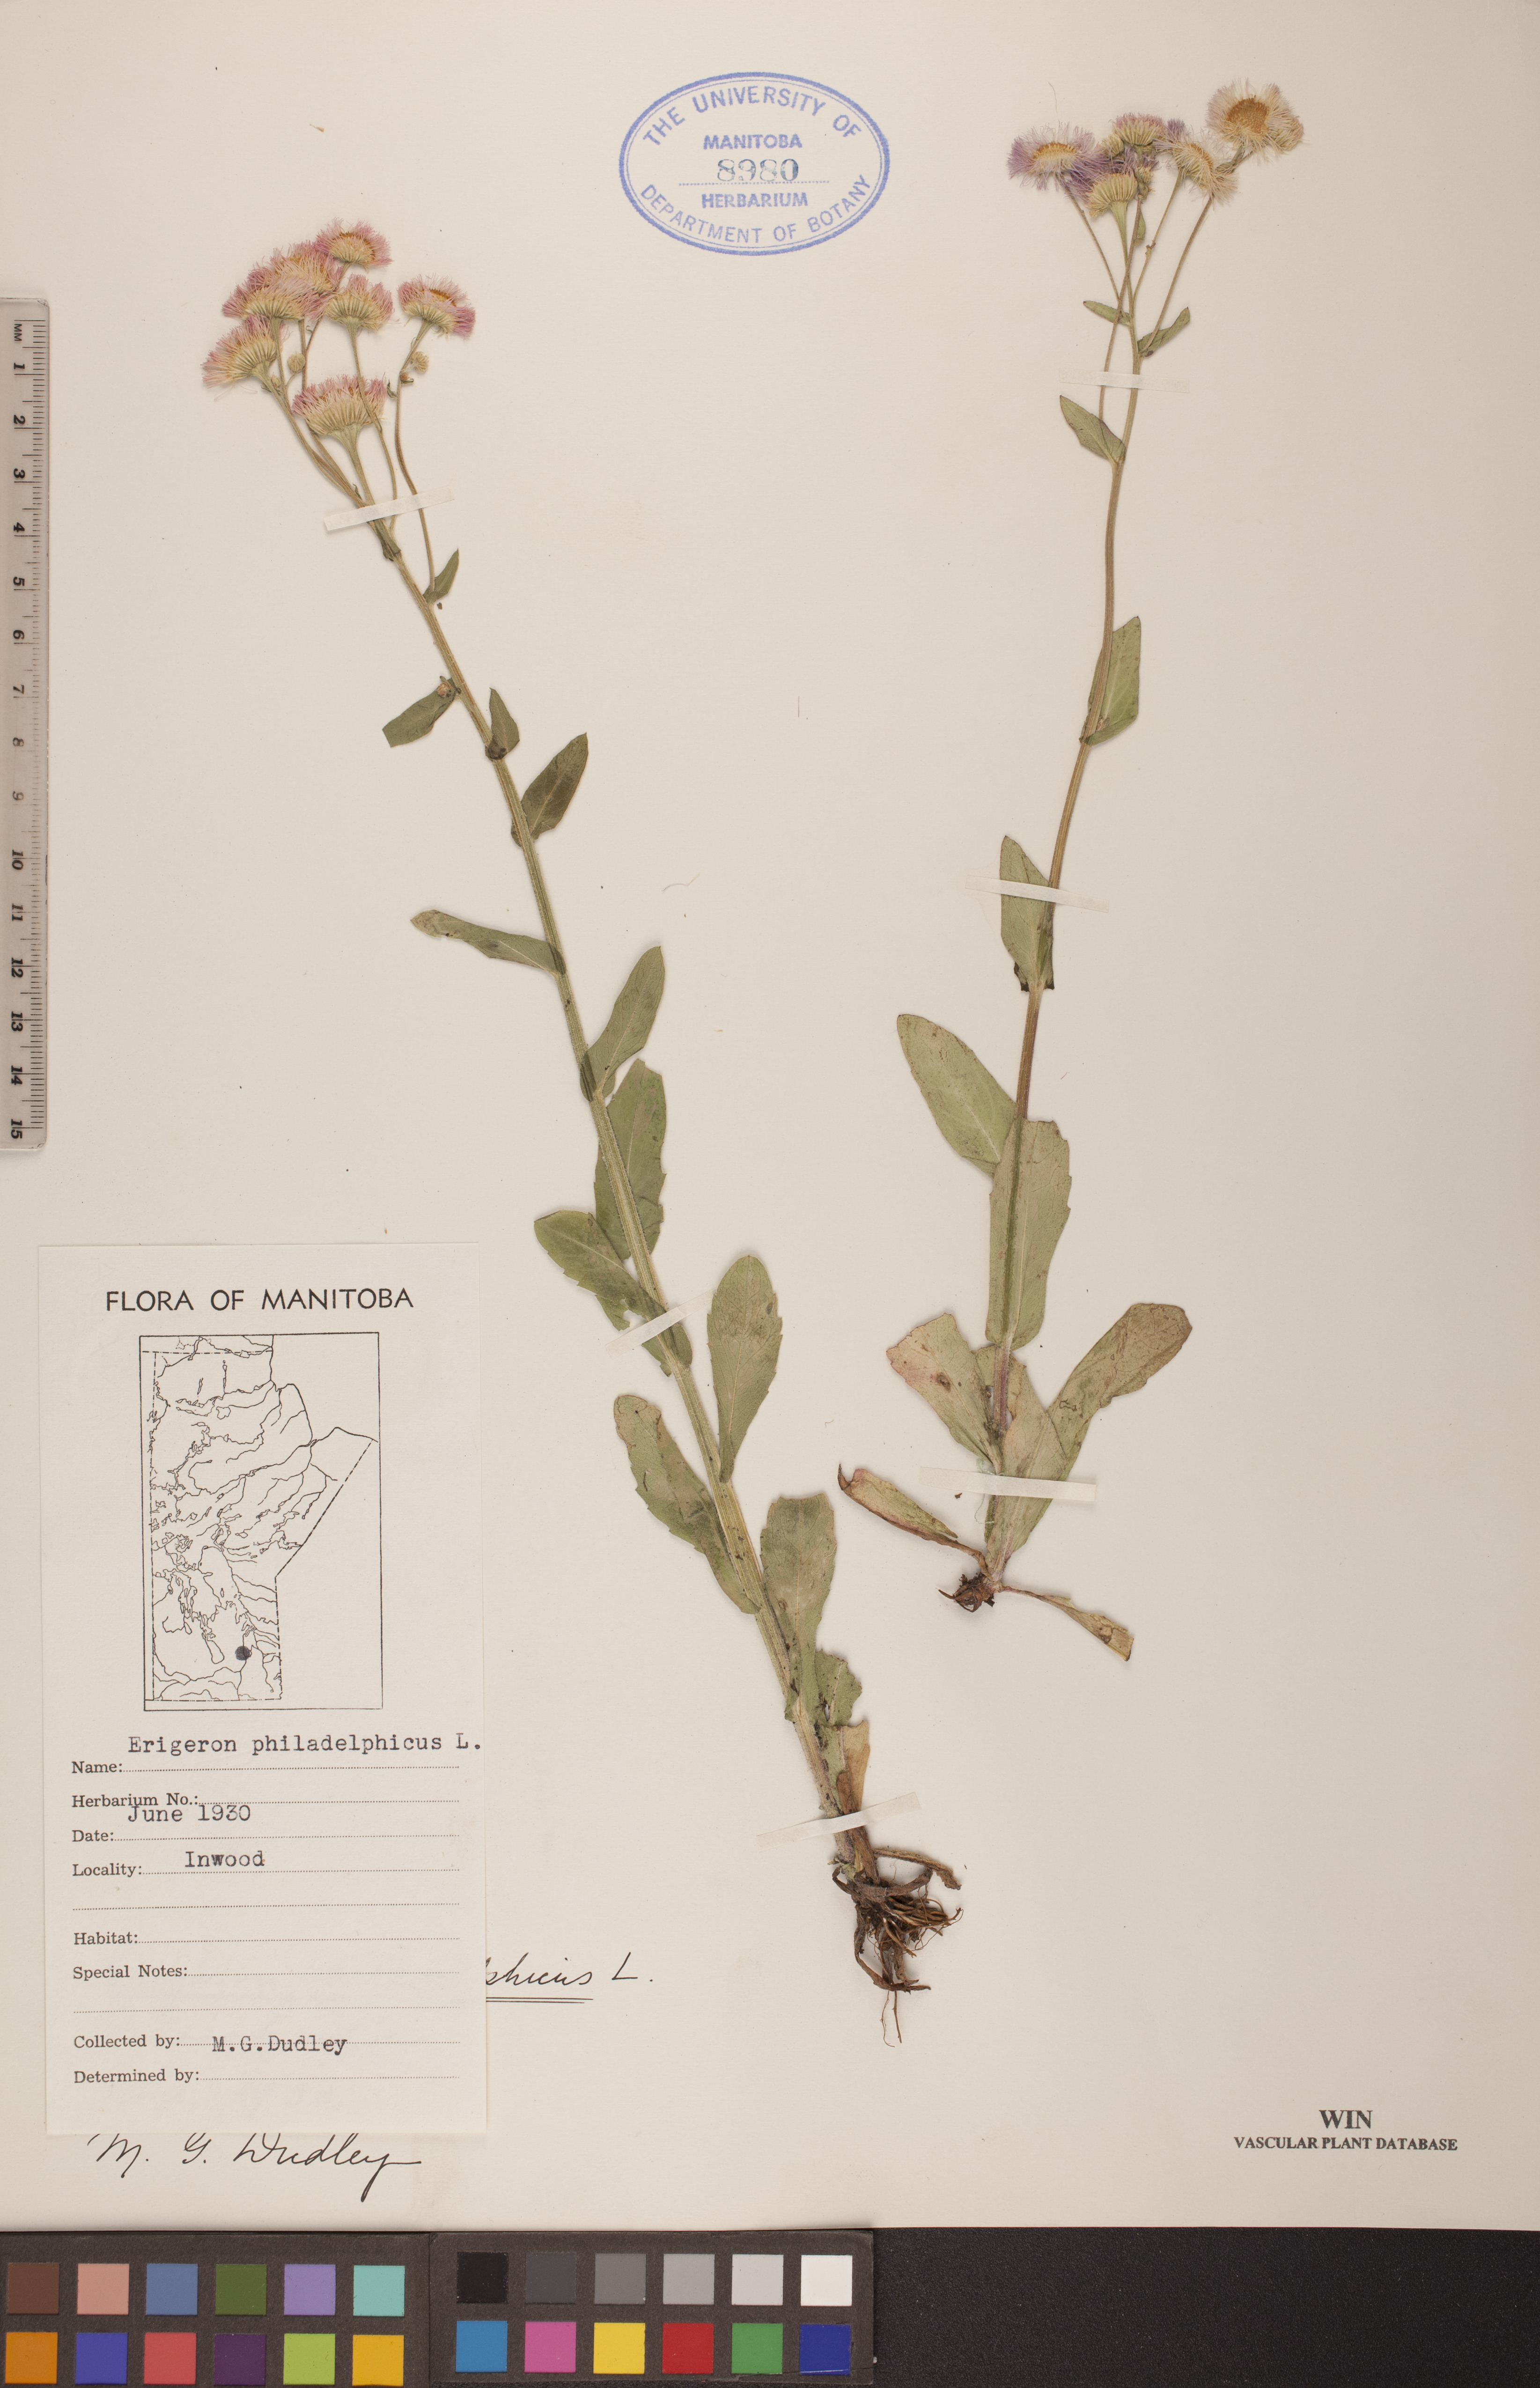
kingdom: Plantae
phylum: Tracheophyta
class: Magnoliopsida
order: Asterales
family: Asteraceae
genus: Erigeron
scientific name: Erigeron philadelphicus
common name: Robin's-plantain
